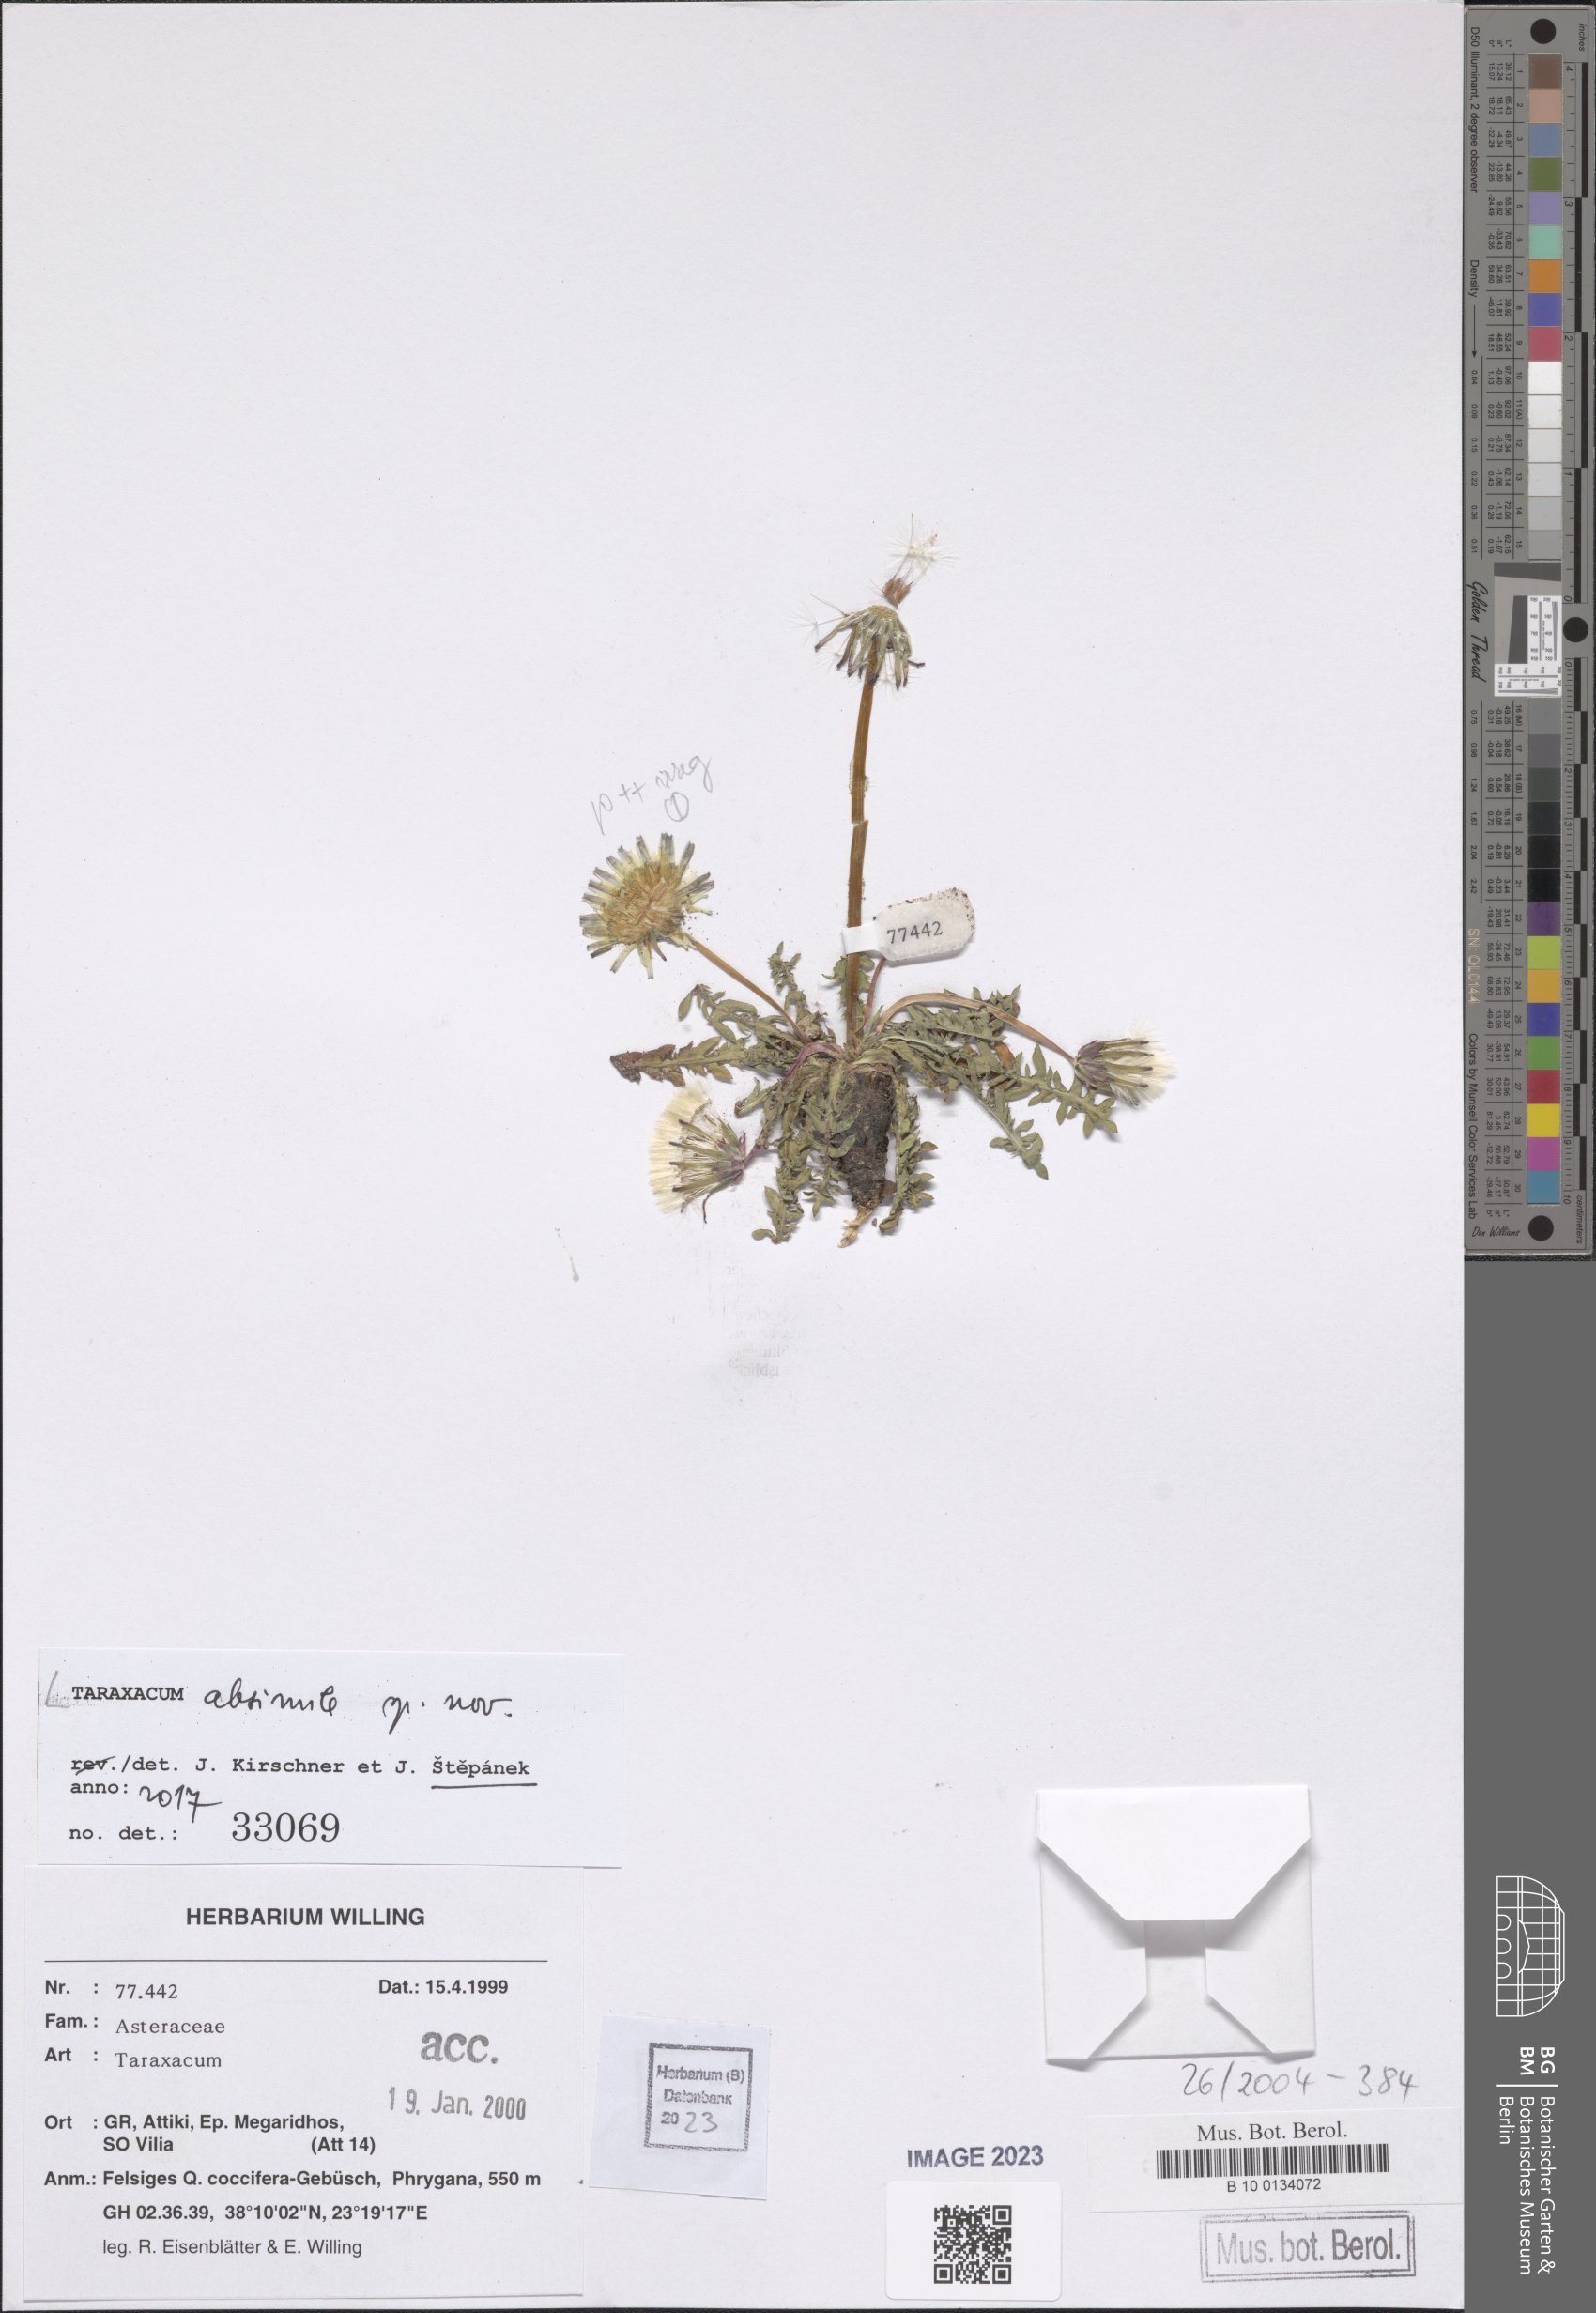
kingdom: Plantae
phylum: Tracheophyta
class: Magnoliopsida
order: Asterales
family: Asteraceae
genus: Taraxacum
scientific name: Taraxacum longisquameum
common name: Elongate-bracted dandelion
